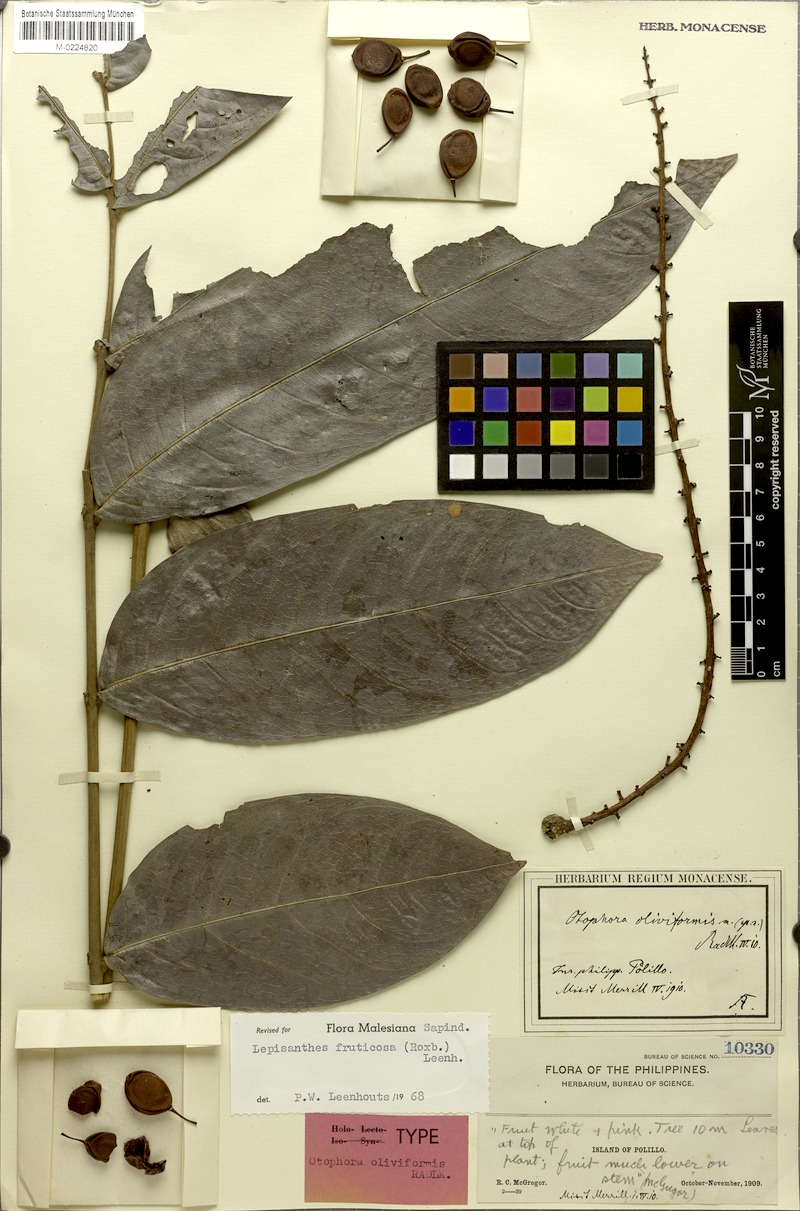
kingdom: Plantae
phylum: Tracheophyta
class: Magnoliopsida
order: Sapindales
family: Sapindaceae
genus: Lepisanthes
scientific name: Lepisanthes fruticosa
